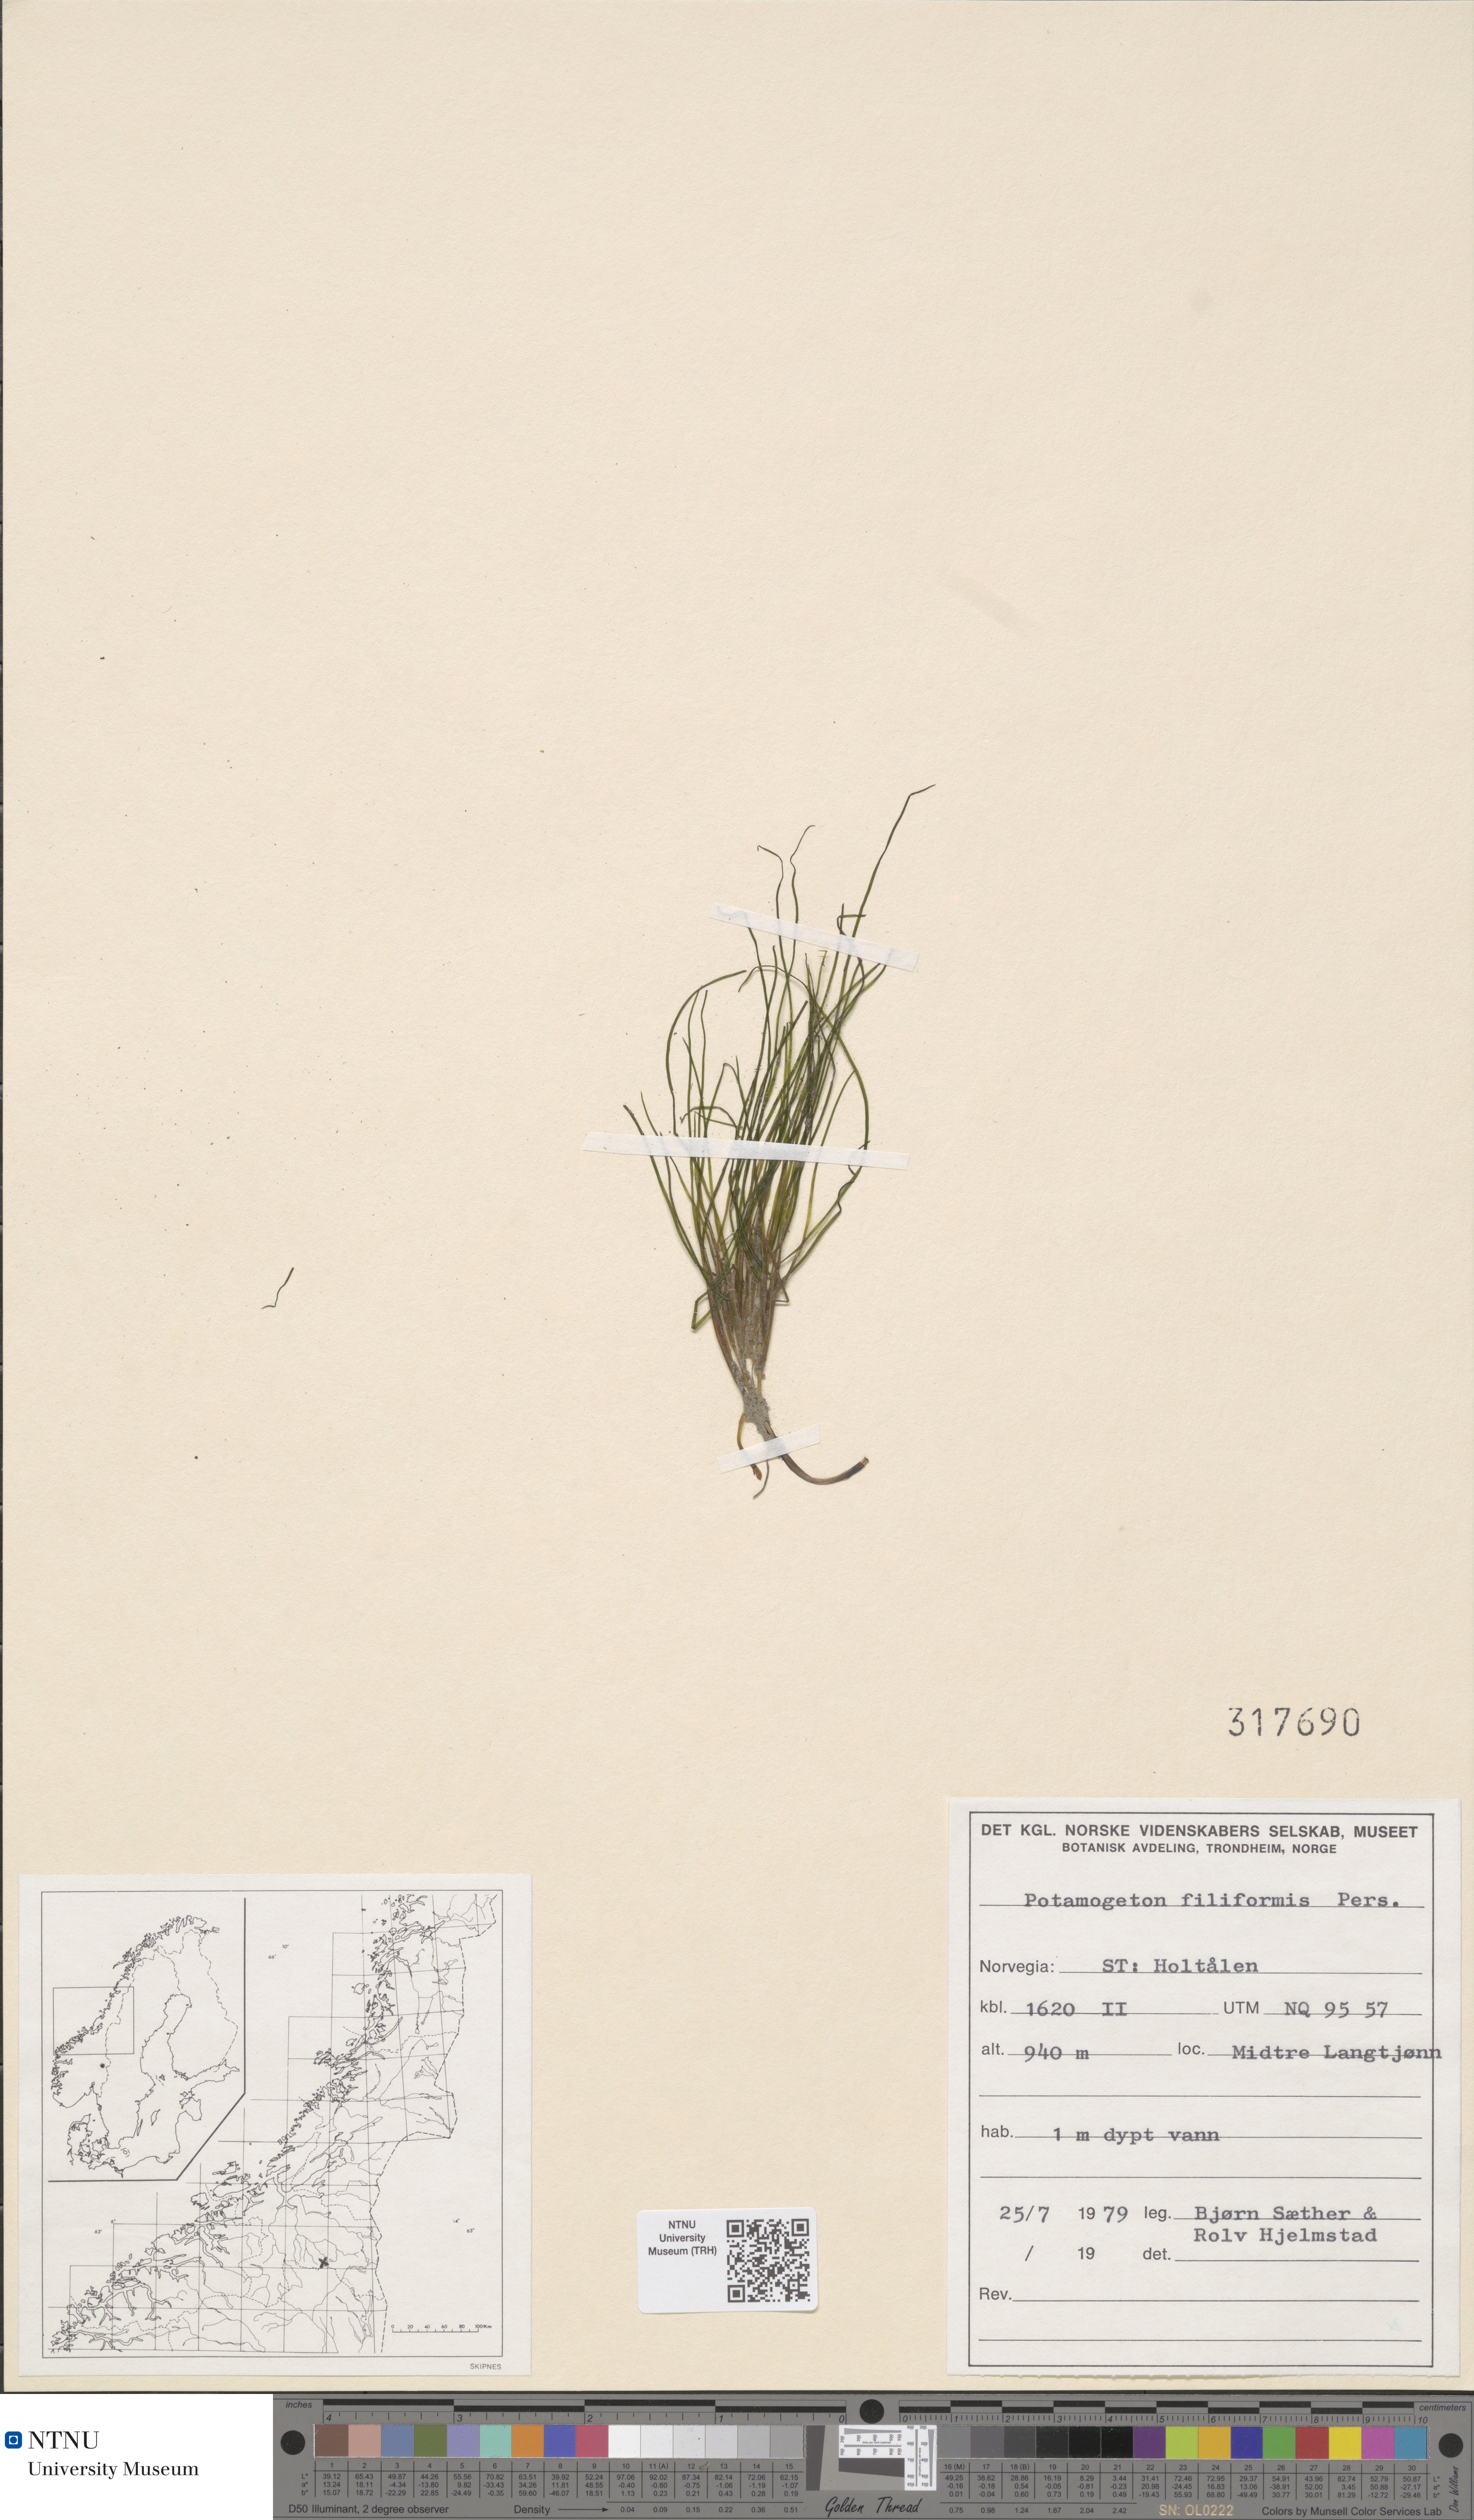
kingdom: Plantae
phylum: Tracheophyta
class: Liliopsida
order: Alismatales
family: Potamogetonaceae
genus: Stuckenia
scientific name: Stuckenia filiformis
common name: Alpine thread-leaved pondweed
